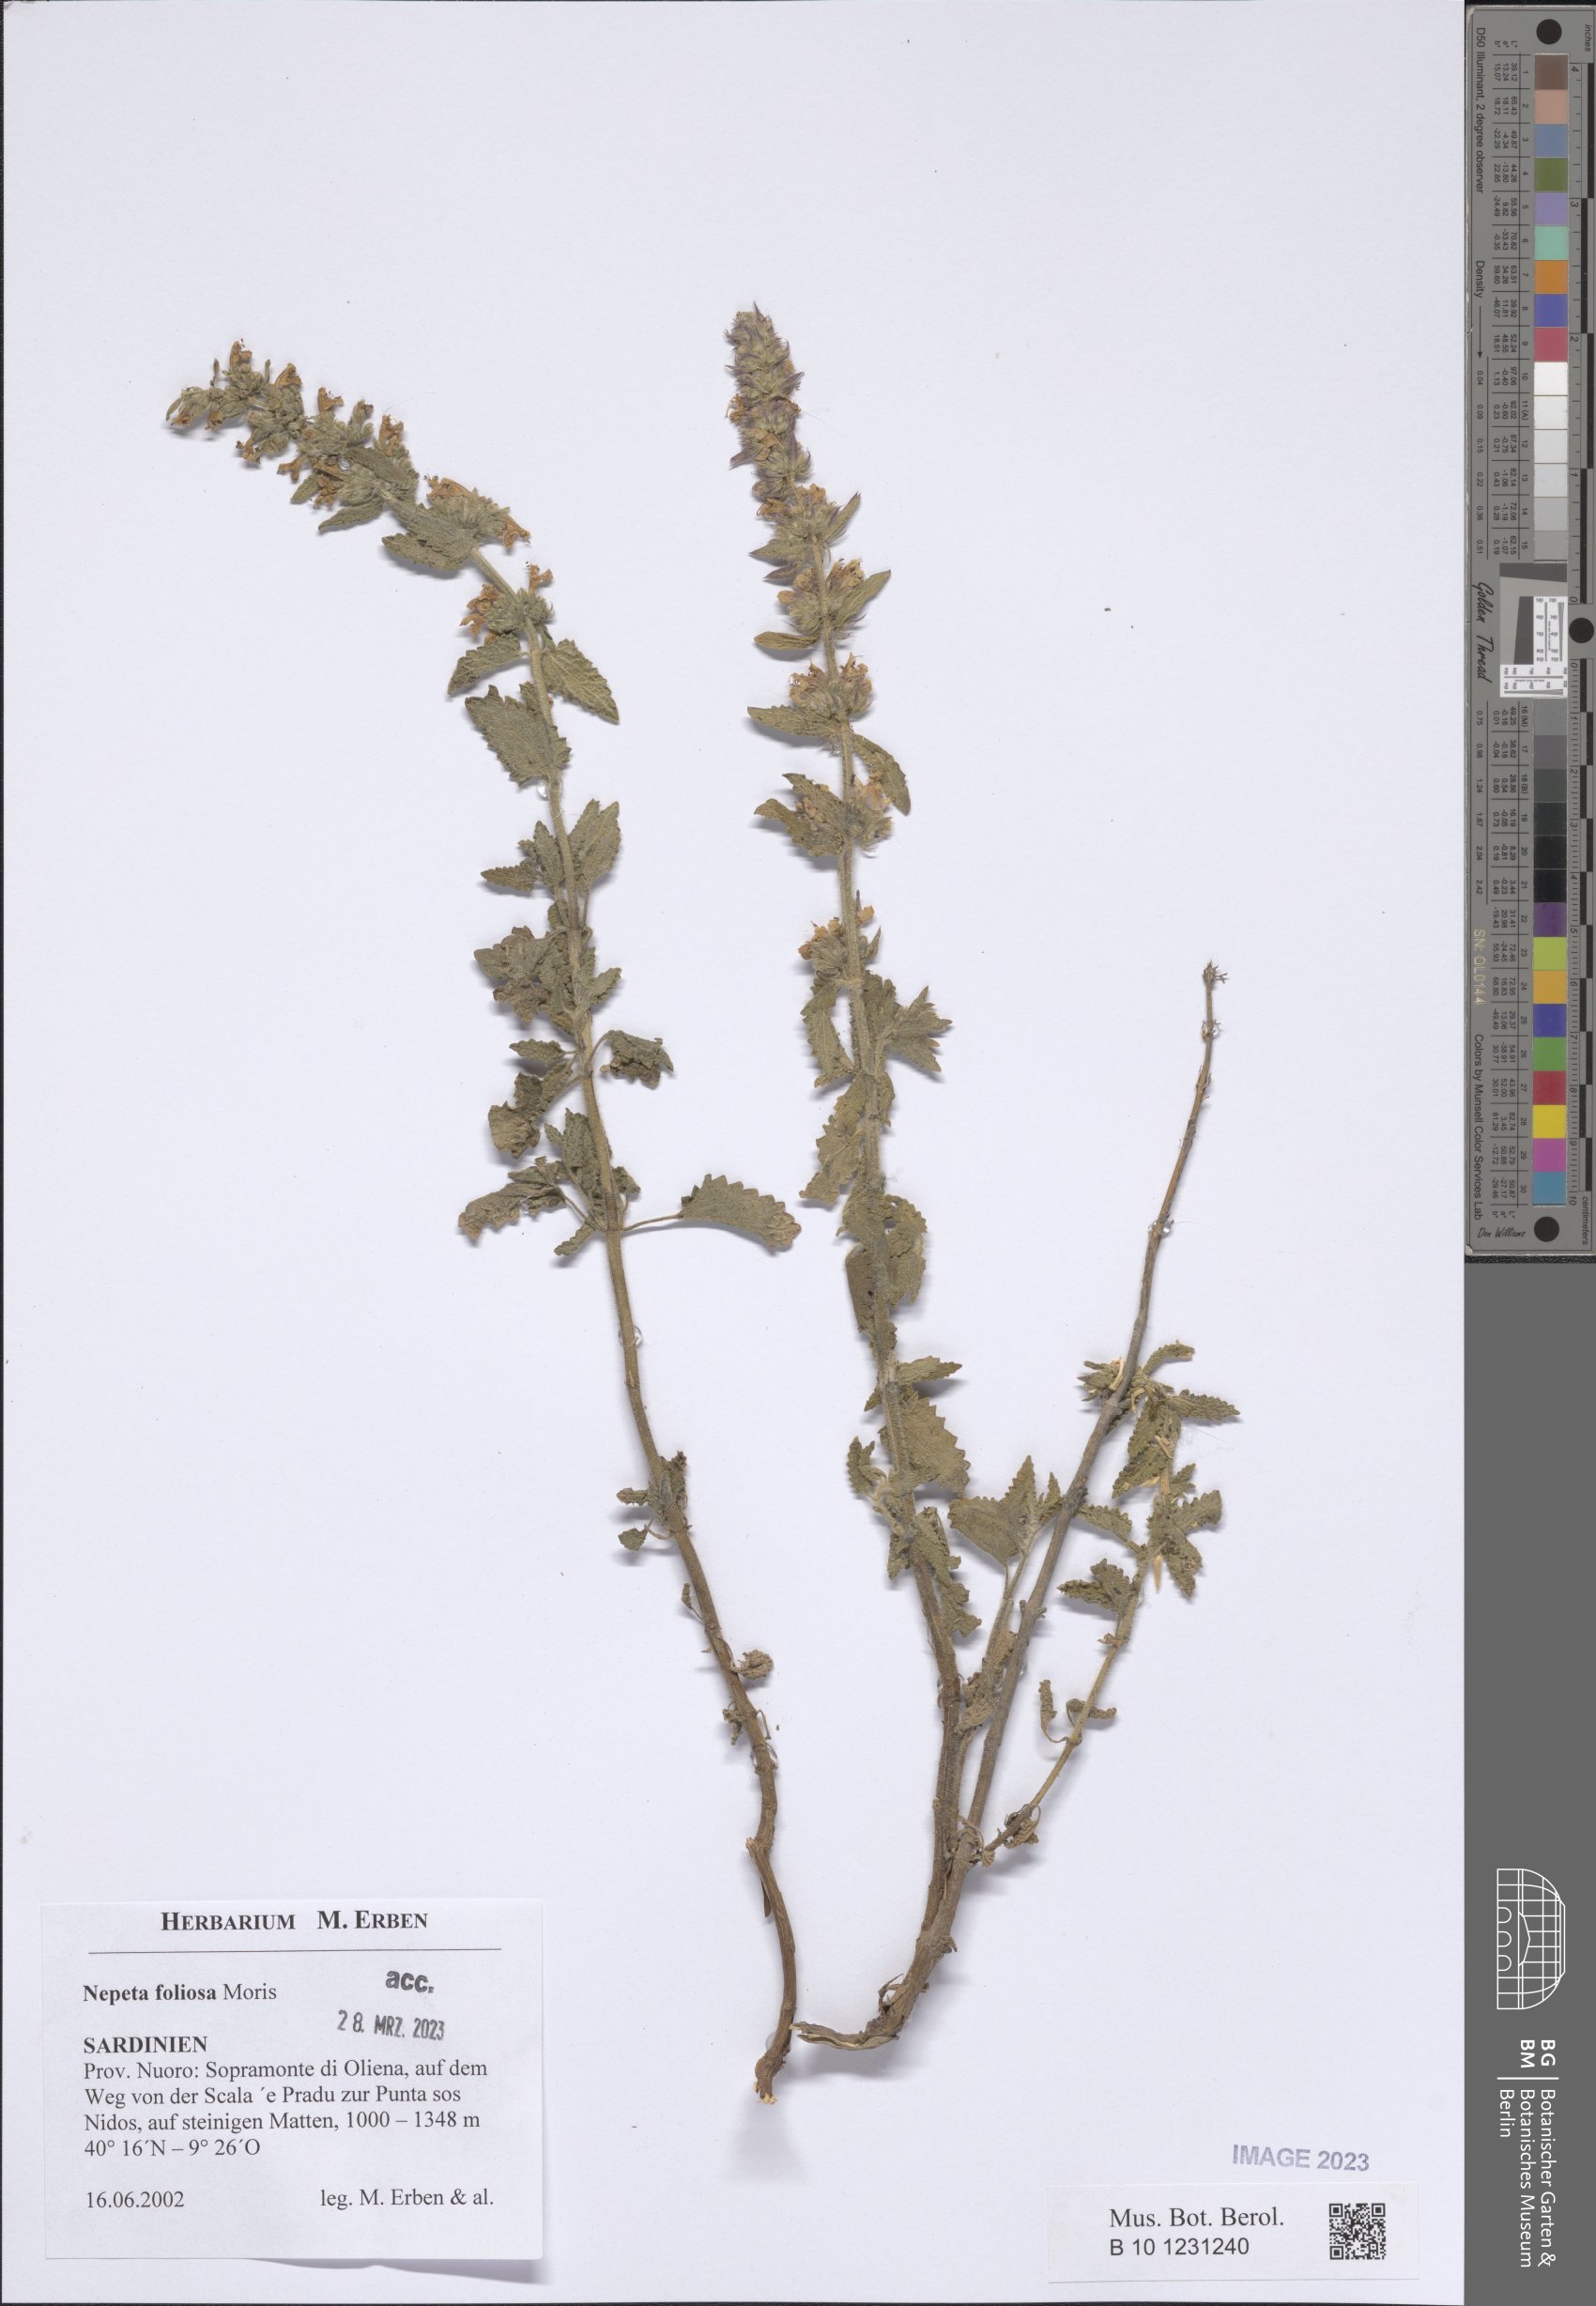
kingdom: Plantae
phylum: Tracheophyta
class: Magnoliopsida
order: Lamiales
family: Lamiaceae
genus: Nepeta
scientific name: Nepeta foliosa
